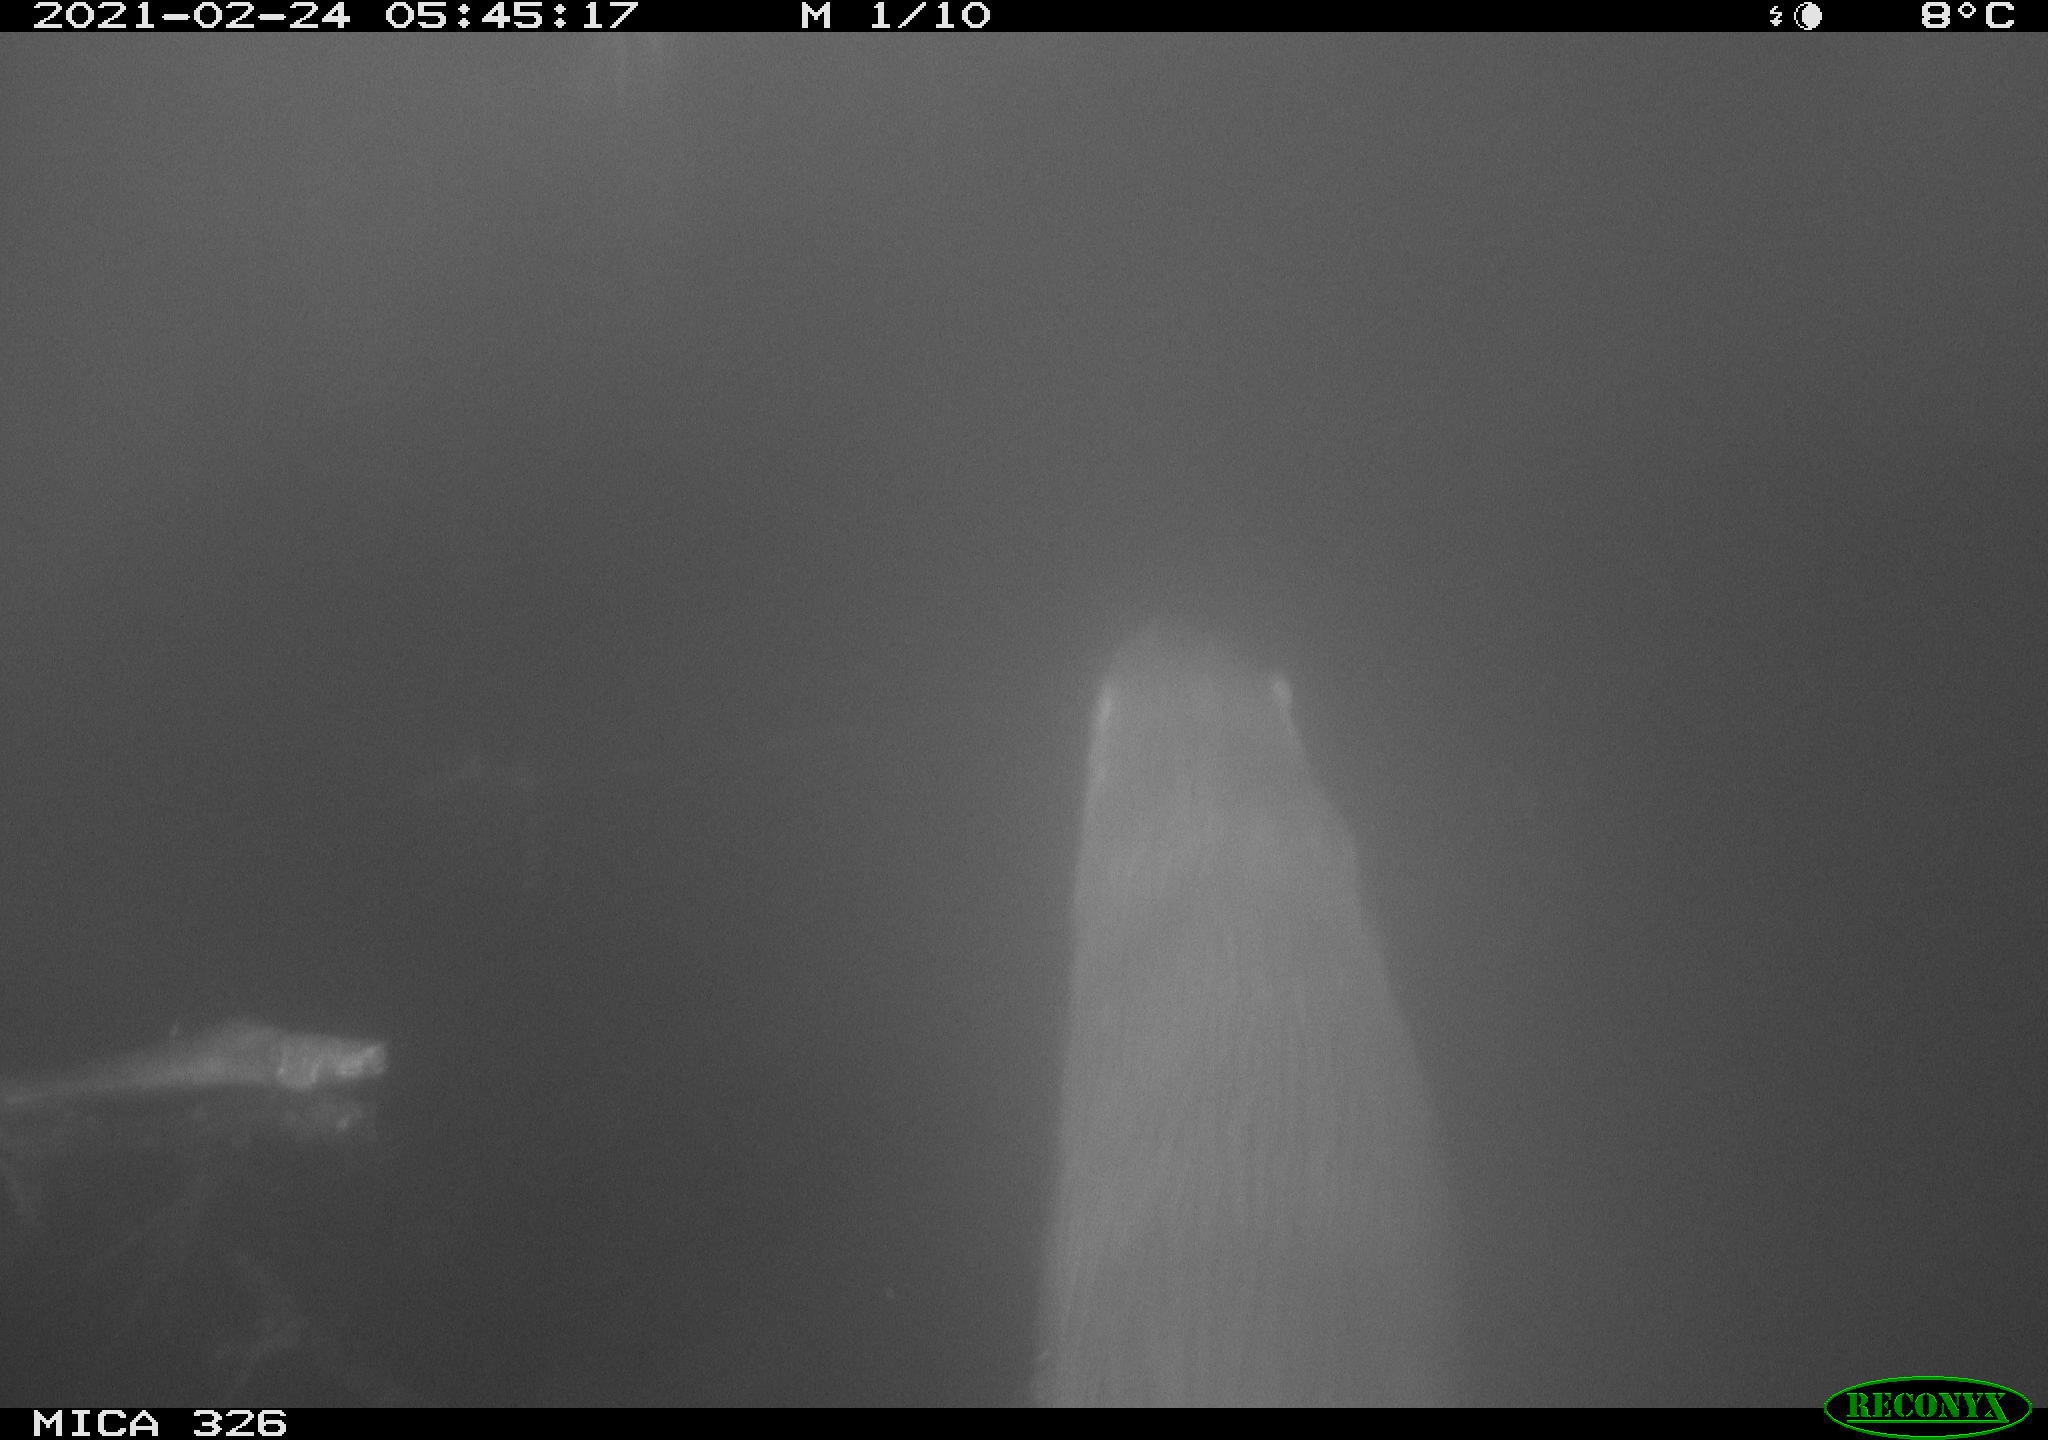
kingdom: Animalia
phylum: Chordata
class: Mammalia
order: Carnivora
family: Mustelidae
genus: Lutra
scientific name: Lutra lutra
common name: European otter
